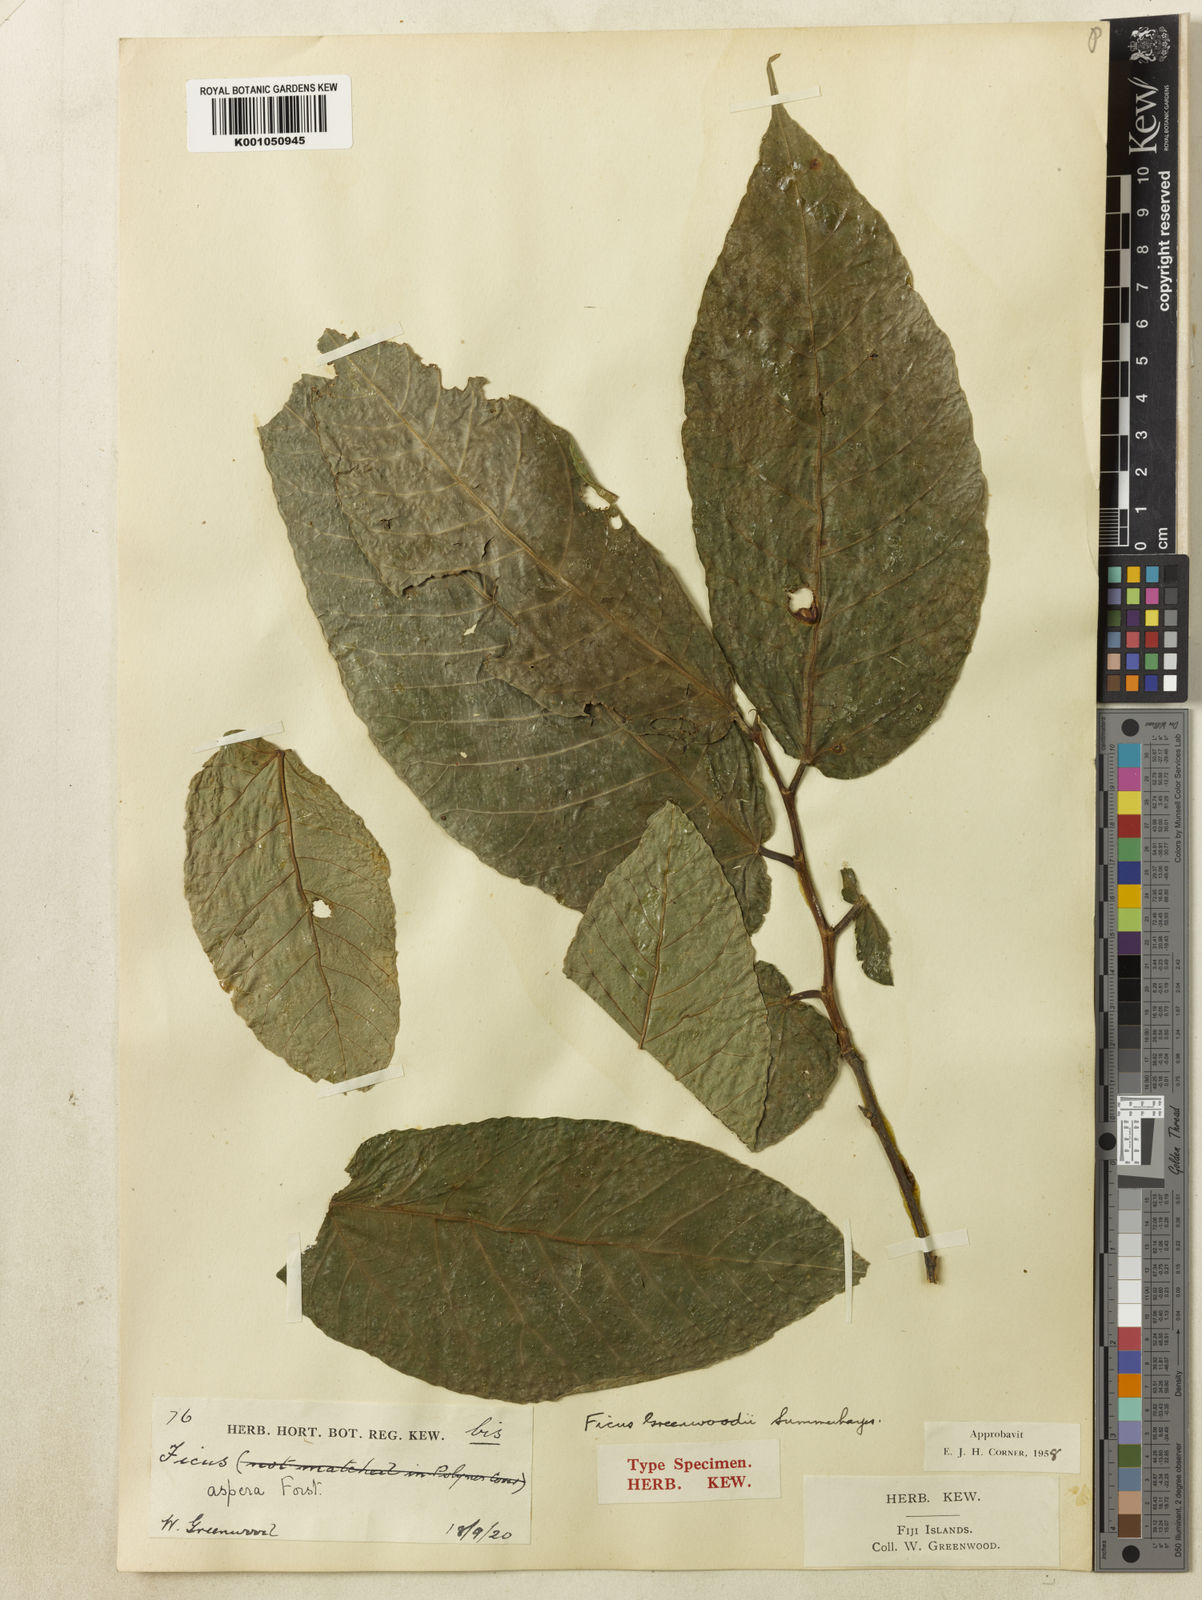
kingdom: Plantae
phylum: Tracheophyta
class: Magnoliopsida
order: Rosales
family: Moraceae
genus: Ficus
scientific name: Ficus greenwoodii
